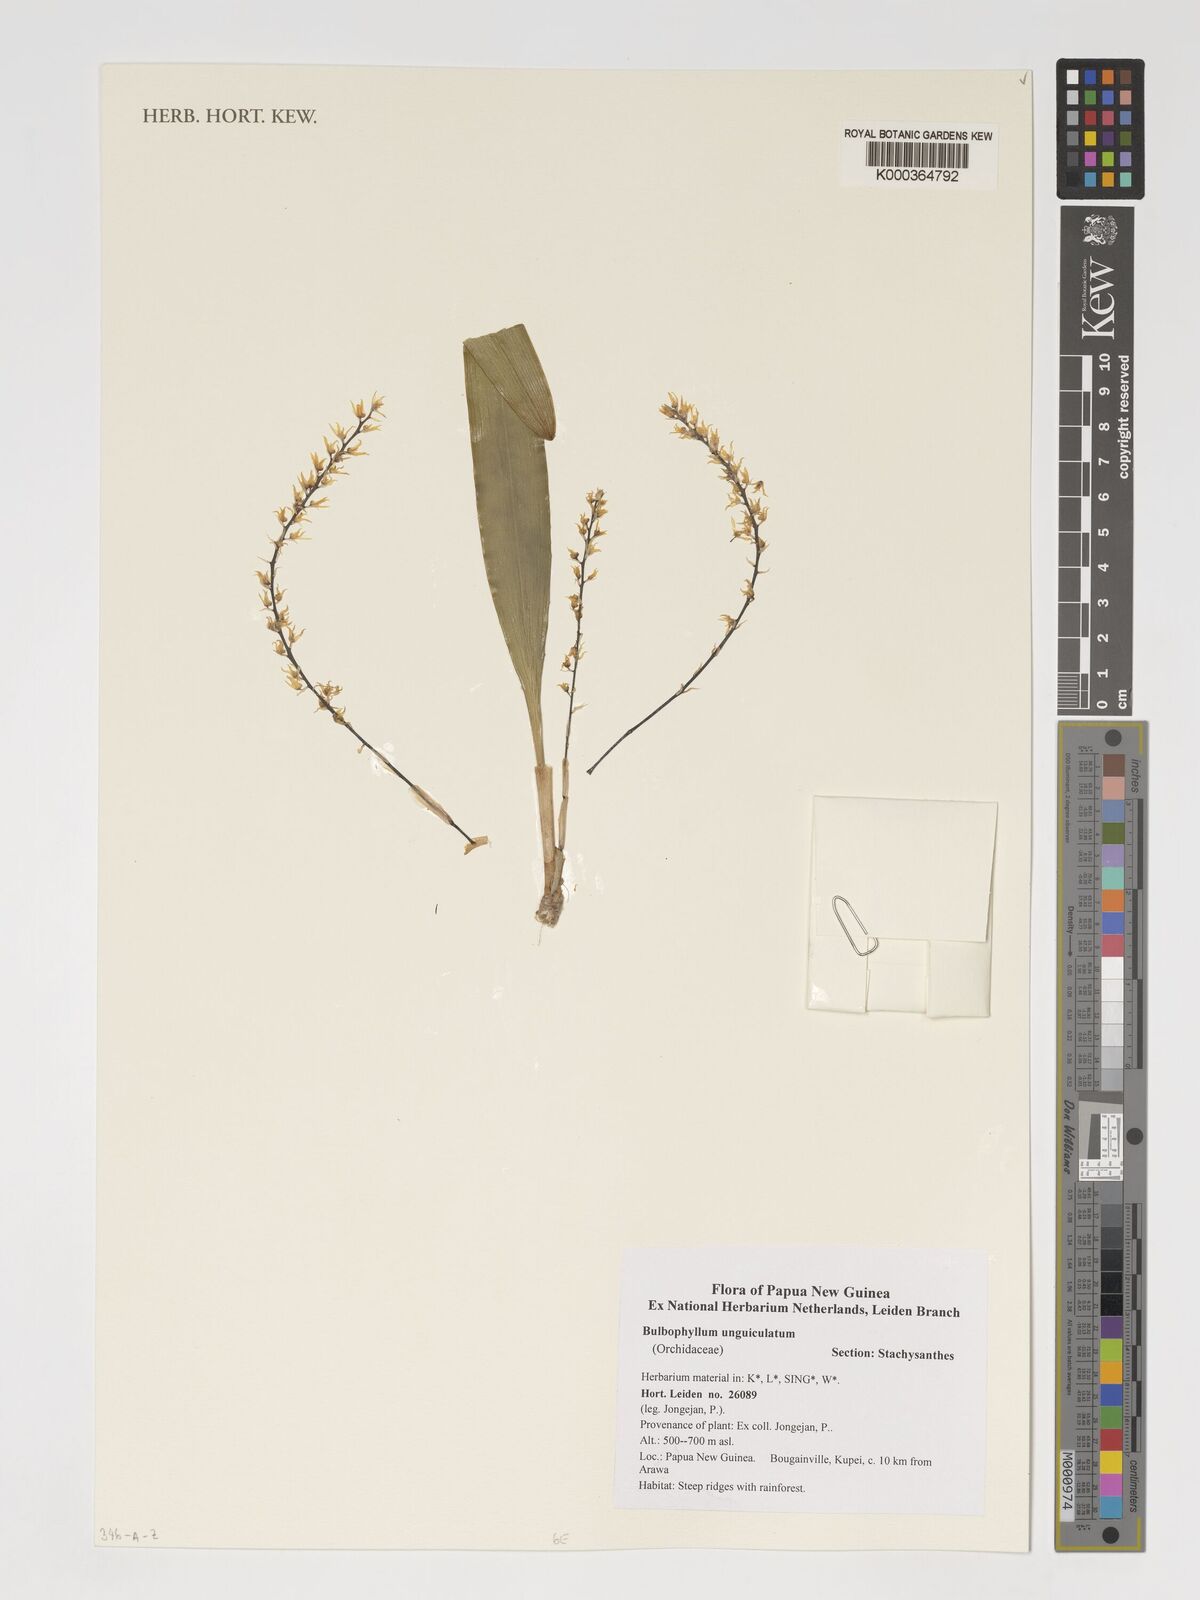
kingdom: Plantae
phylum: Tracheophyta
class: Liliopsida
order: Asparagales
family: Orchidaceae
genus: Bulbophyllum
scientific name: Bulbophyllum unguiculatum
